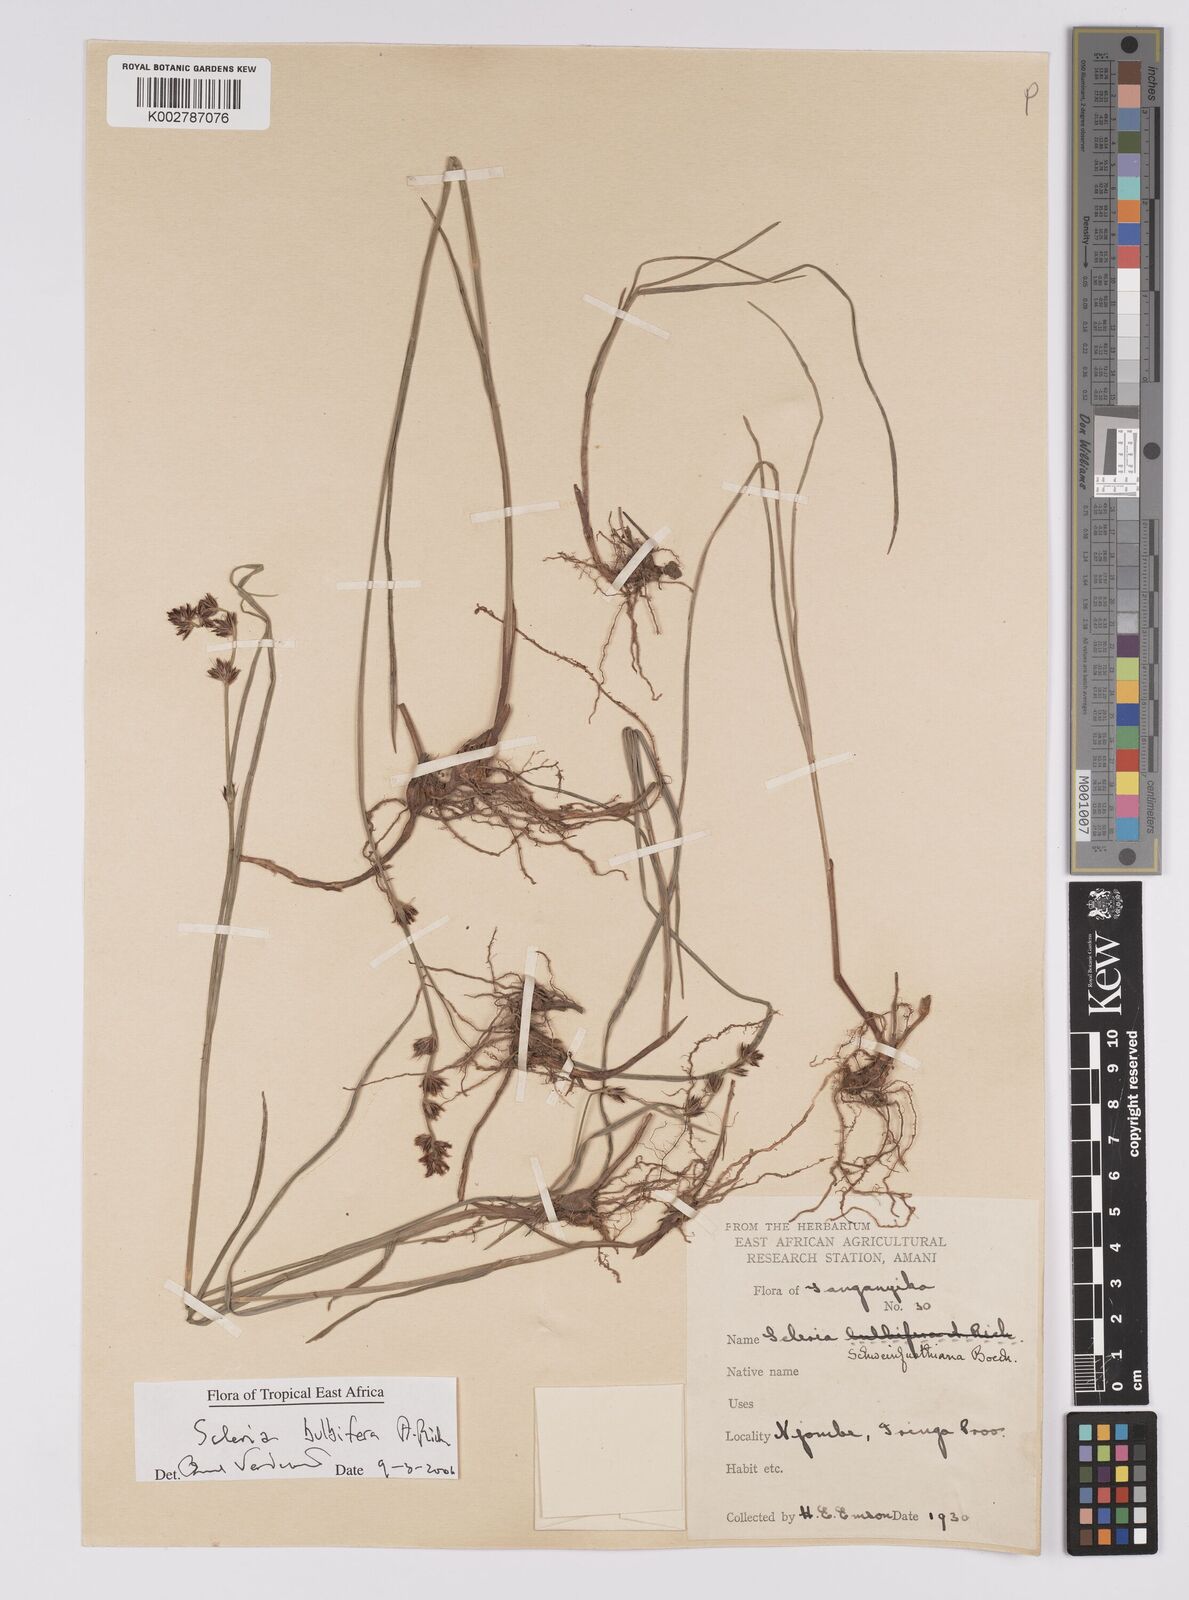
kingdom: Plantae
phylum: Tracheophyta
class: Liliopsida
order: Poales
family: Cyperaceae
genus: Scleria
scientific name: Scleria bulbifera
